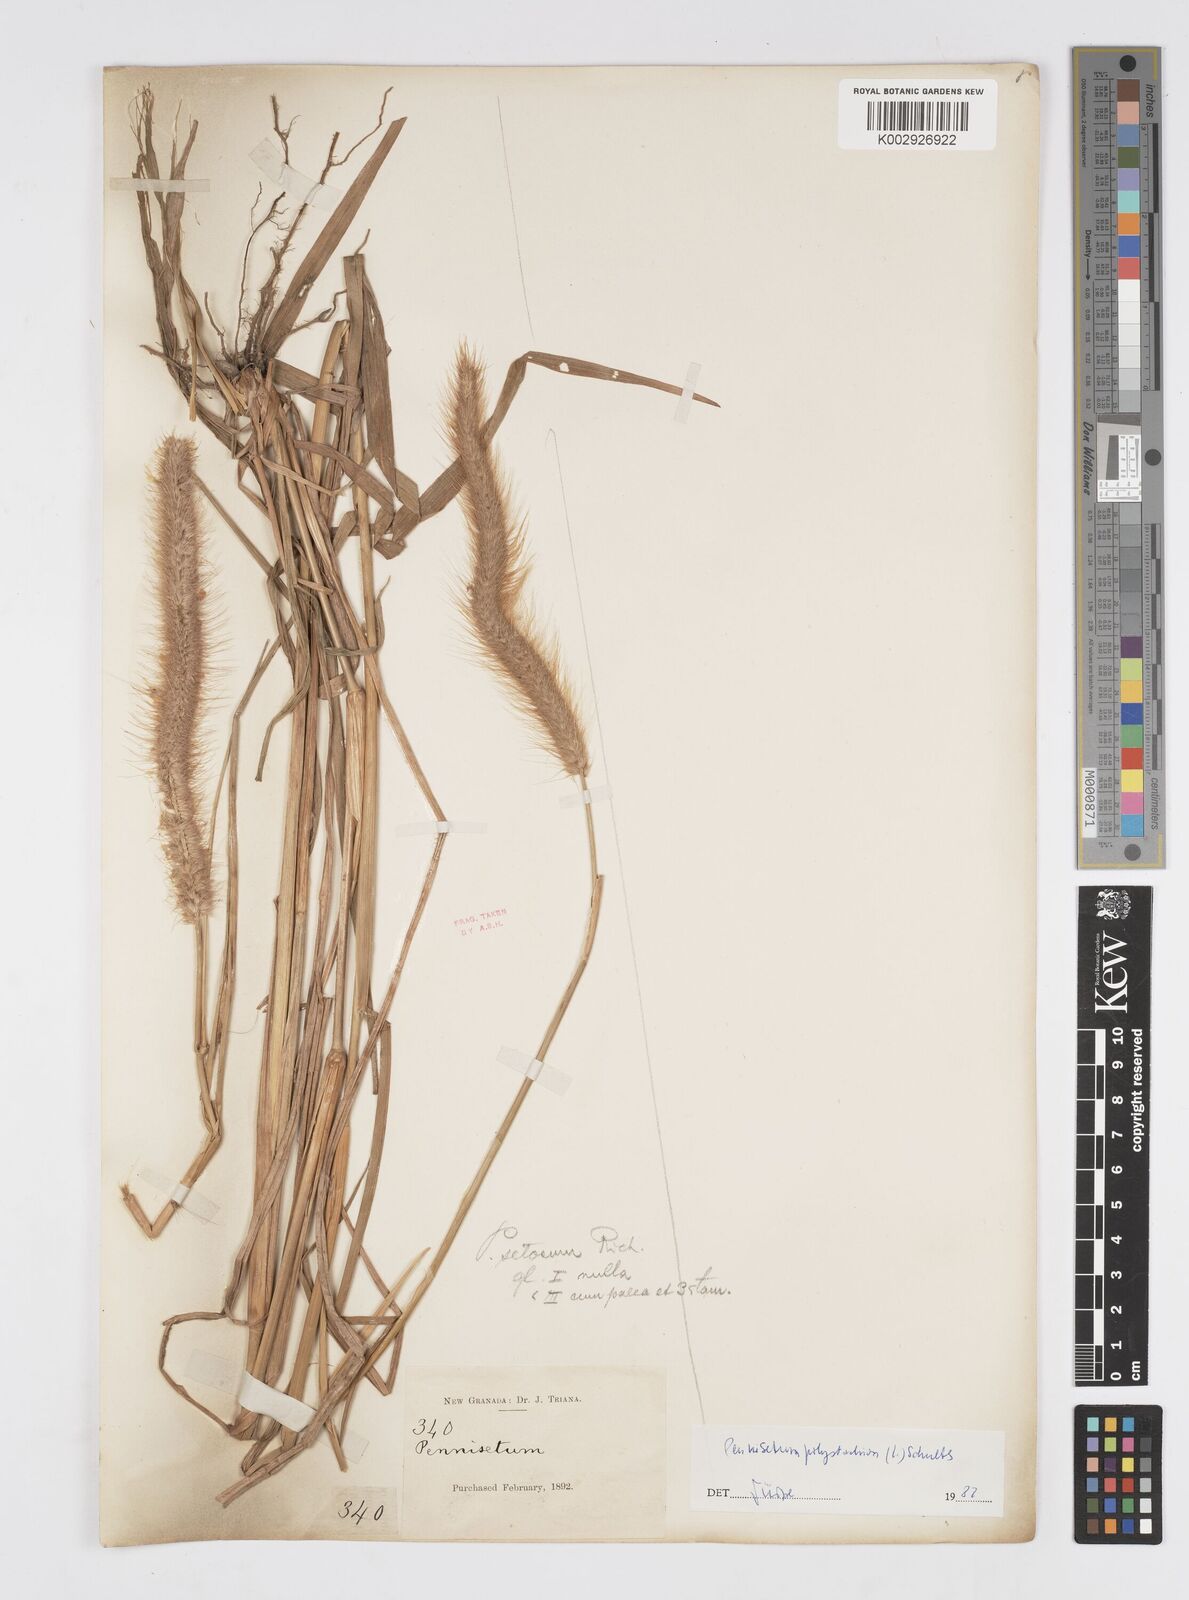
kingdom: Plantae
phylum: Tracheophyta
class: Liliopsida
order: Poales
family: Poaceae
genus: Setaria
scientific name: Setaria parviflora
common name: Knotroot bristle-grass
